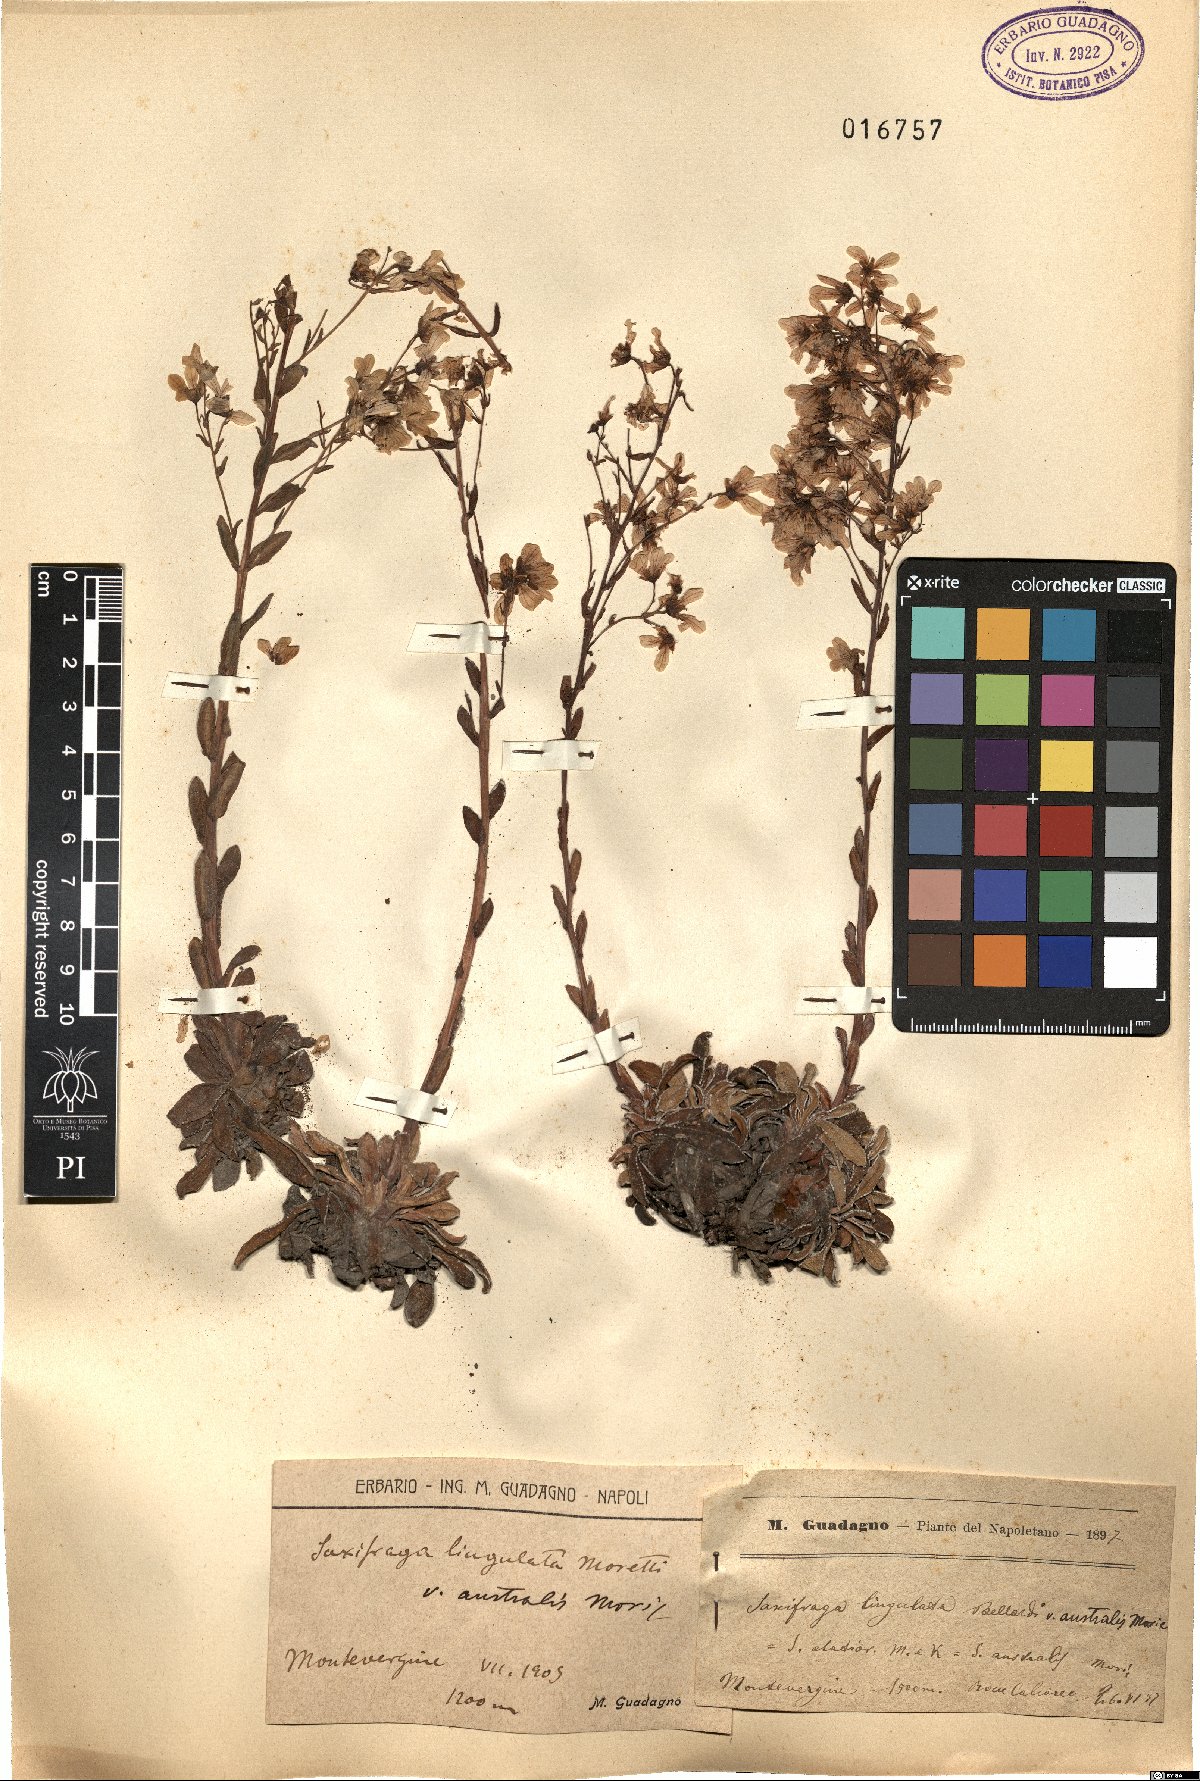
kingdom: Plantae
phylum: Tracheophyta
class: Magnoliopsida
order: Saxifragales
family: Saxifragaceae
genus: Saxifraga
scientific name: Saxifraga callosa
